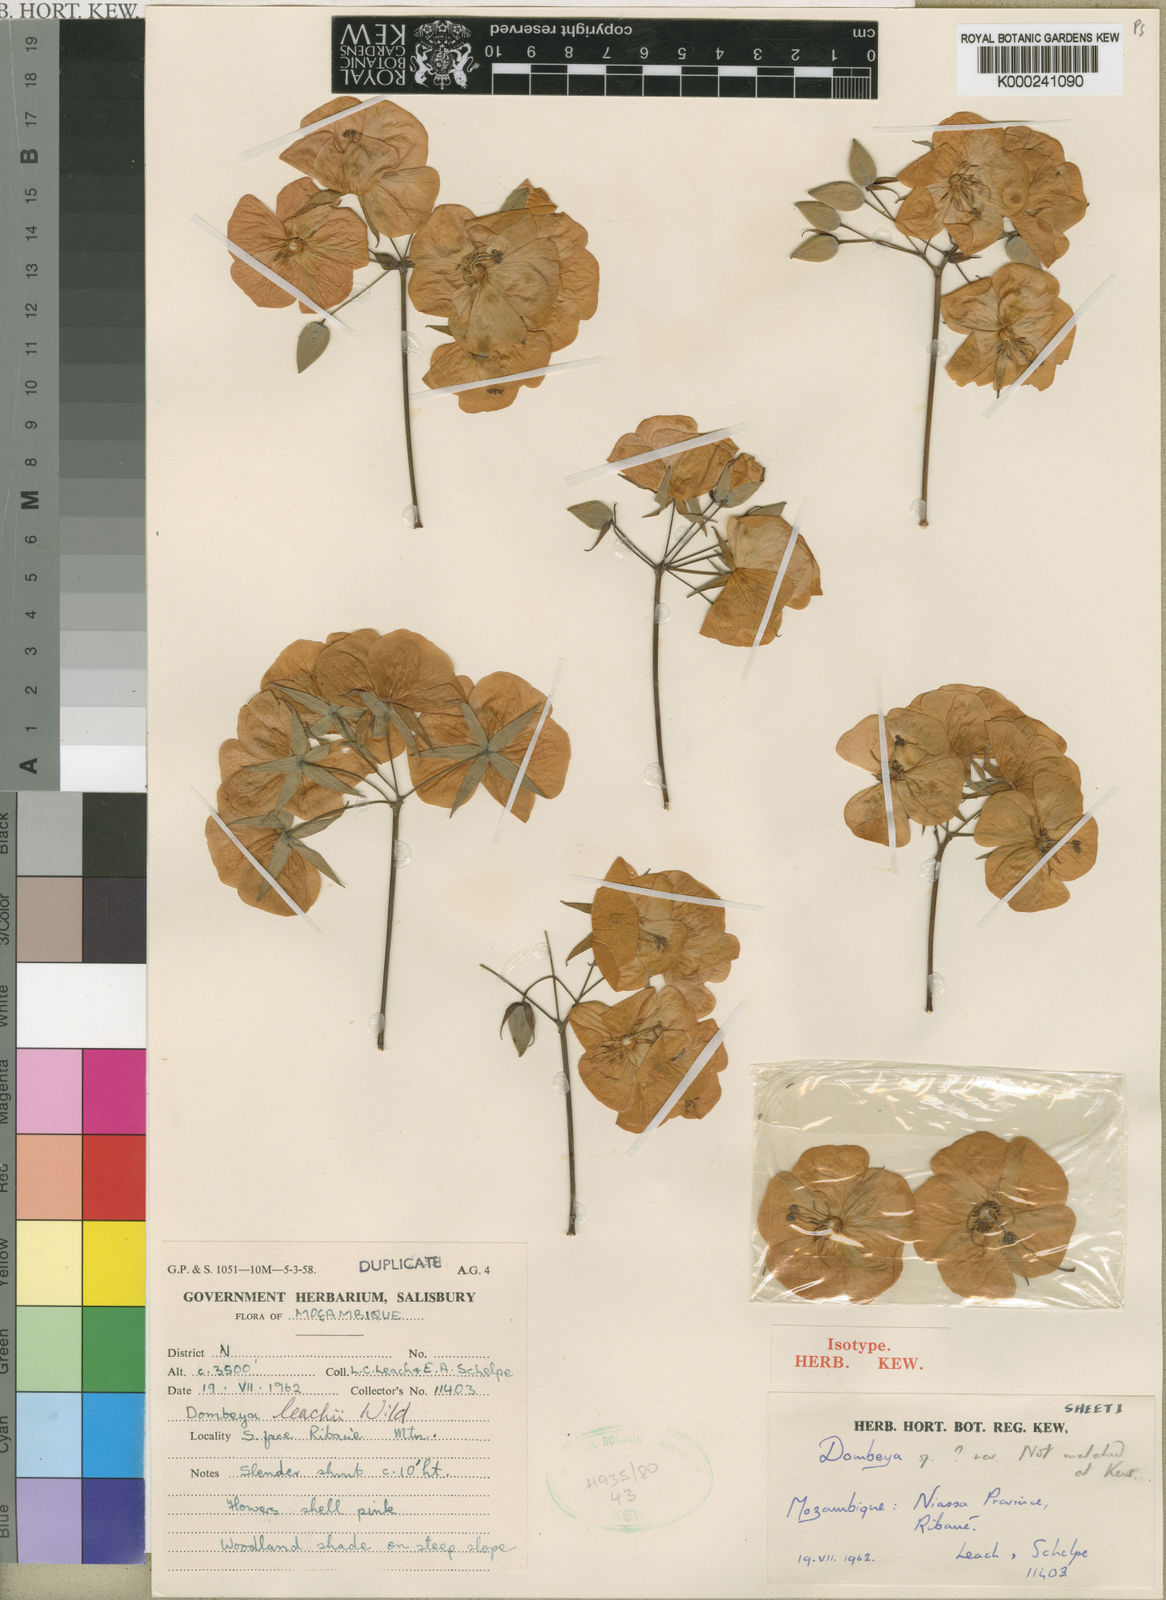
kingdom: Plantae
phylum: Tracheophyta
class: Magnoliopsida
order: Malvales
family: Malvaceae
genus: Dombeya
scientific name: Dombeya leachii
